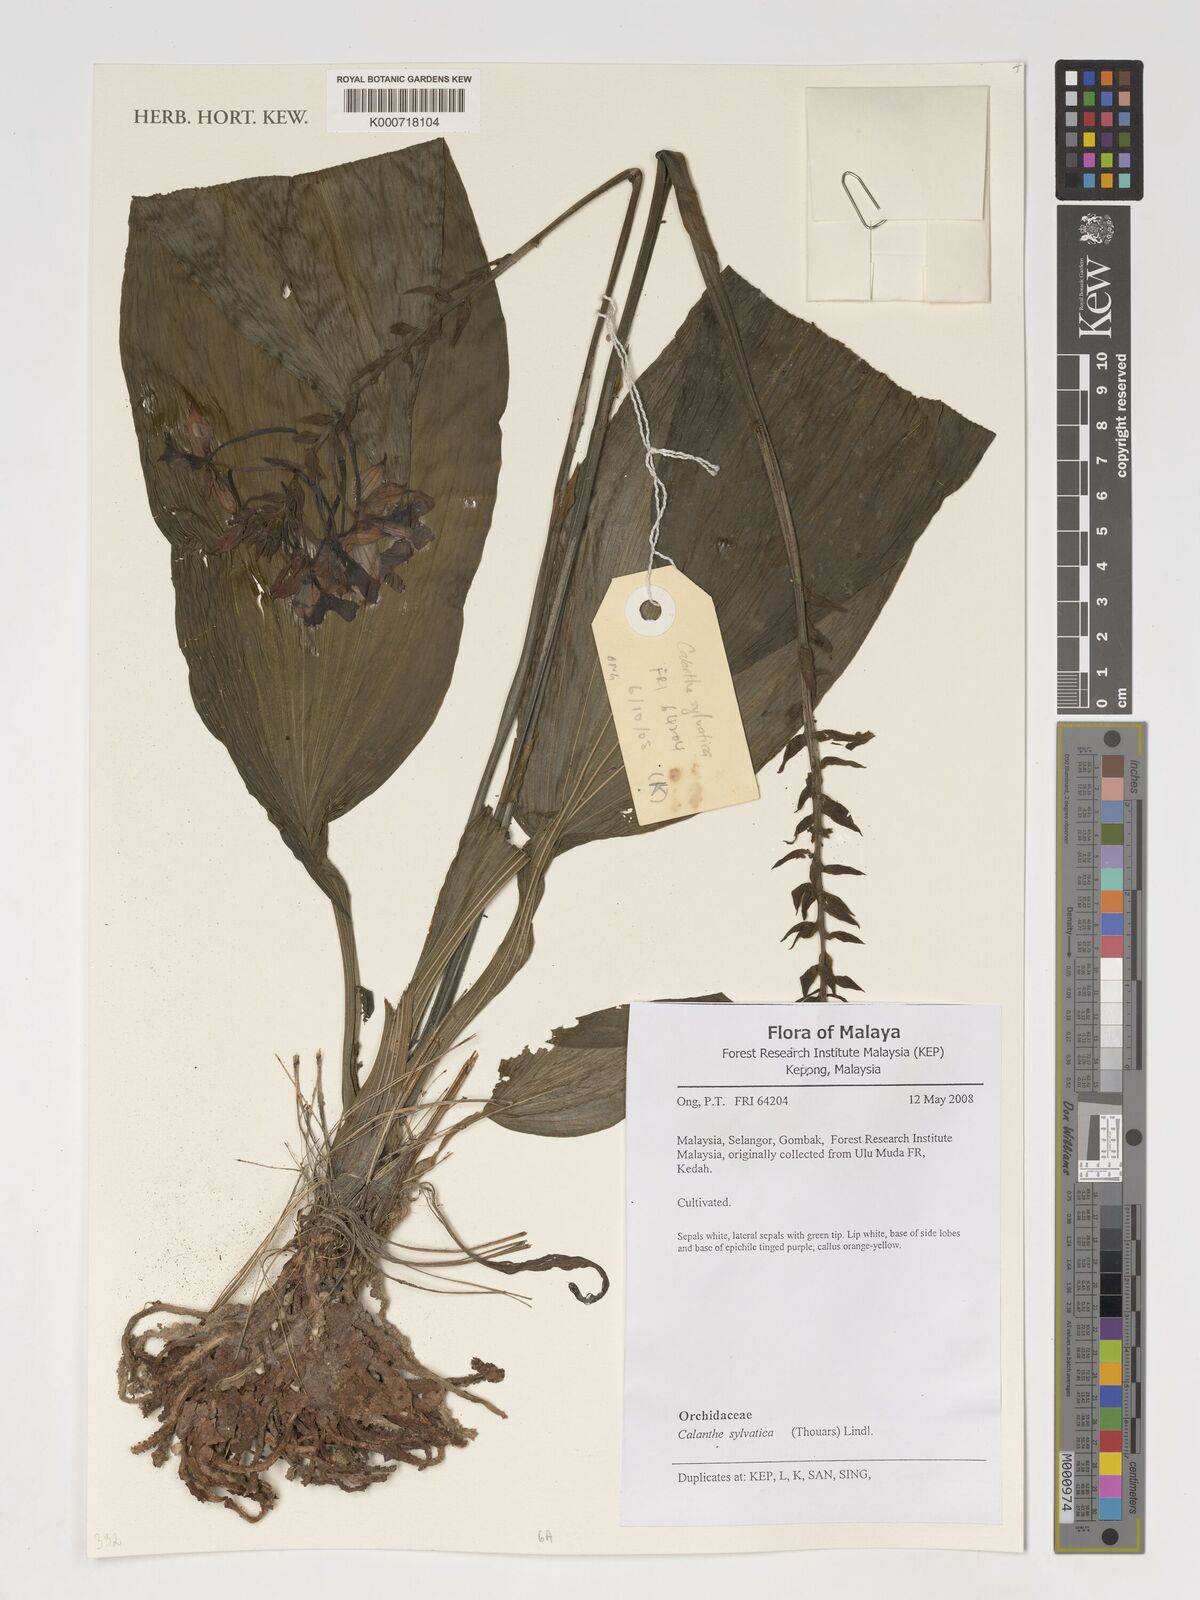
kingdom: Plantae
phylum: Tracheophyta
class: Liliopsida
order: Asparagales
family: Orchidaceae
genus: Calanthe
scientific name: Calanthe sylvatica
